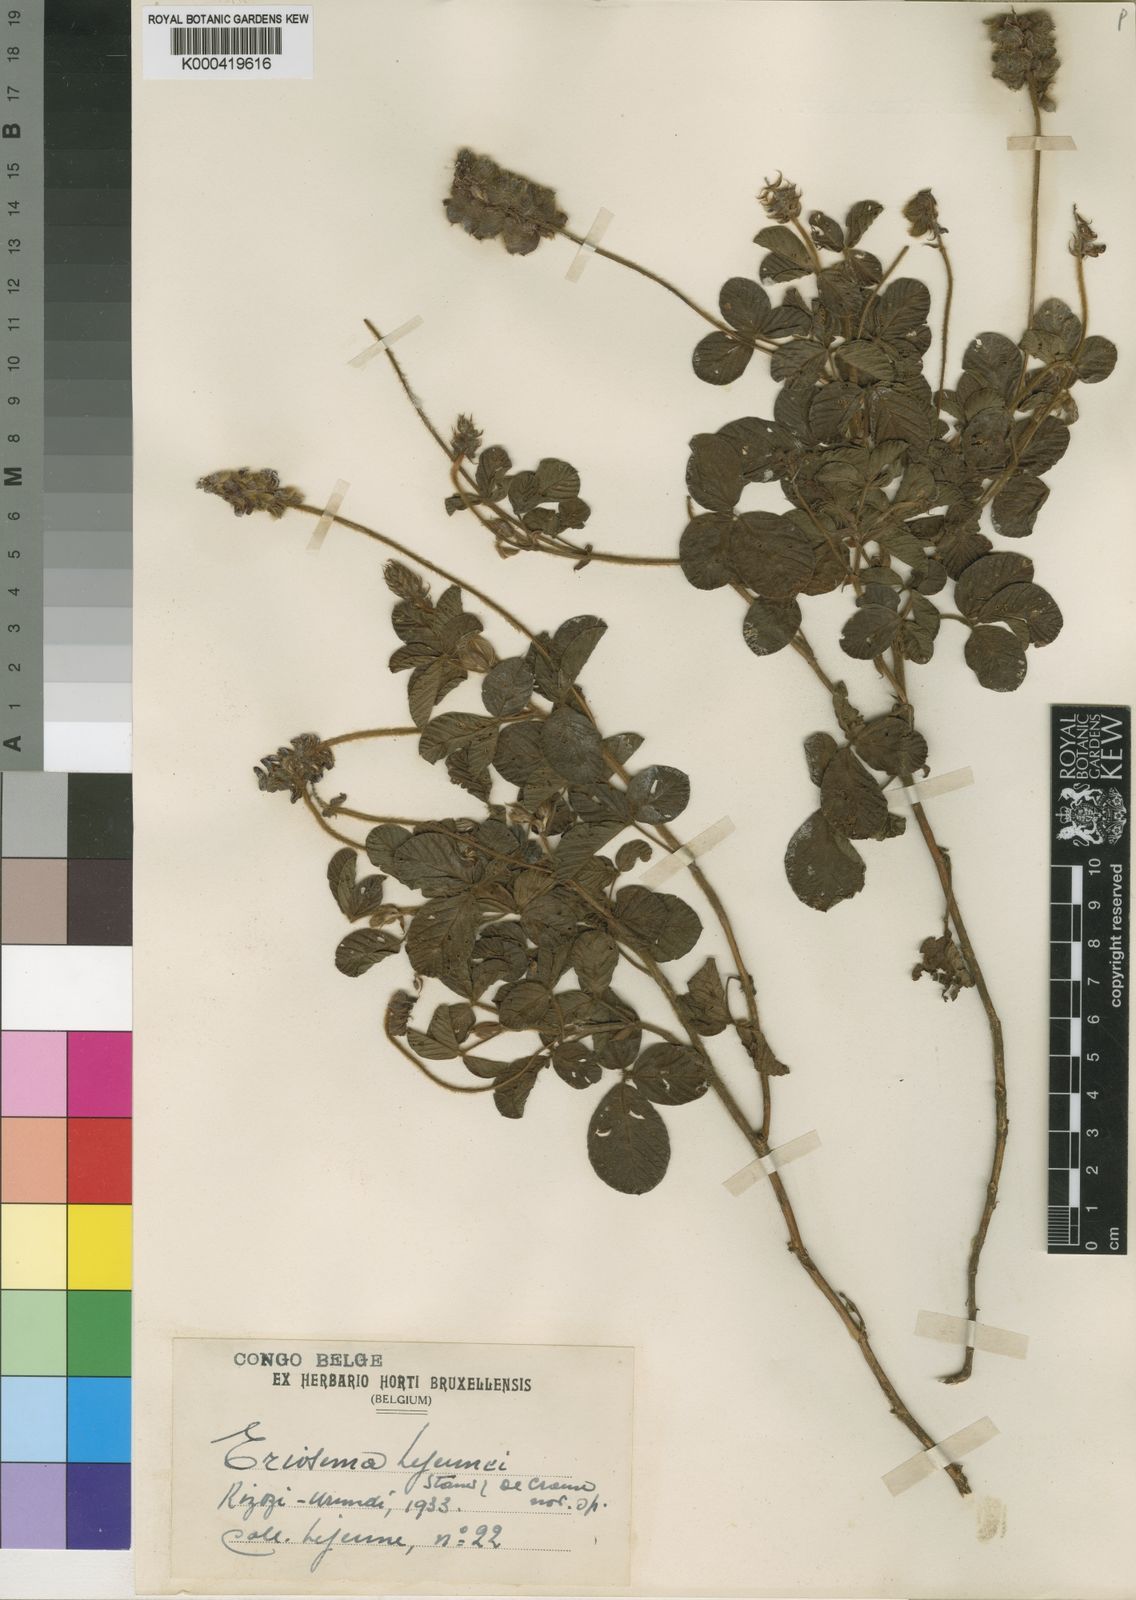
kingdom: Plantae
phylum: Tracheophyta
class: Magnoliopsida
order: Fabales
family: Fabaceae
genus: Eriosema
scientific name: Eriosema scioanum
